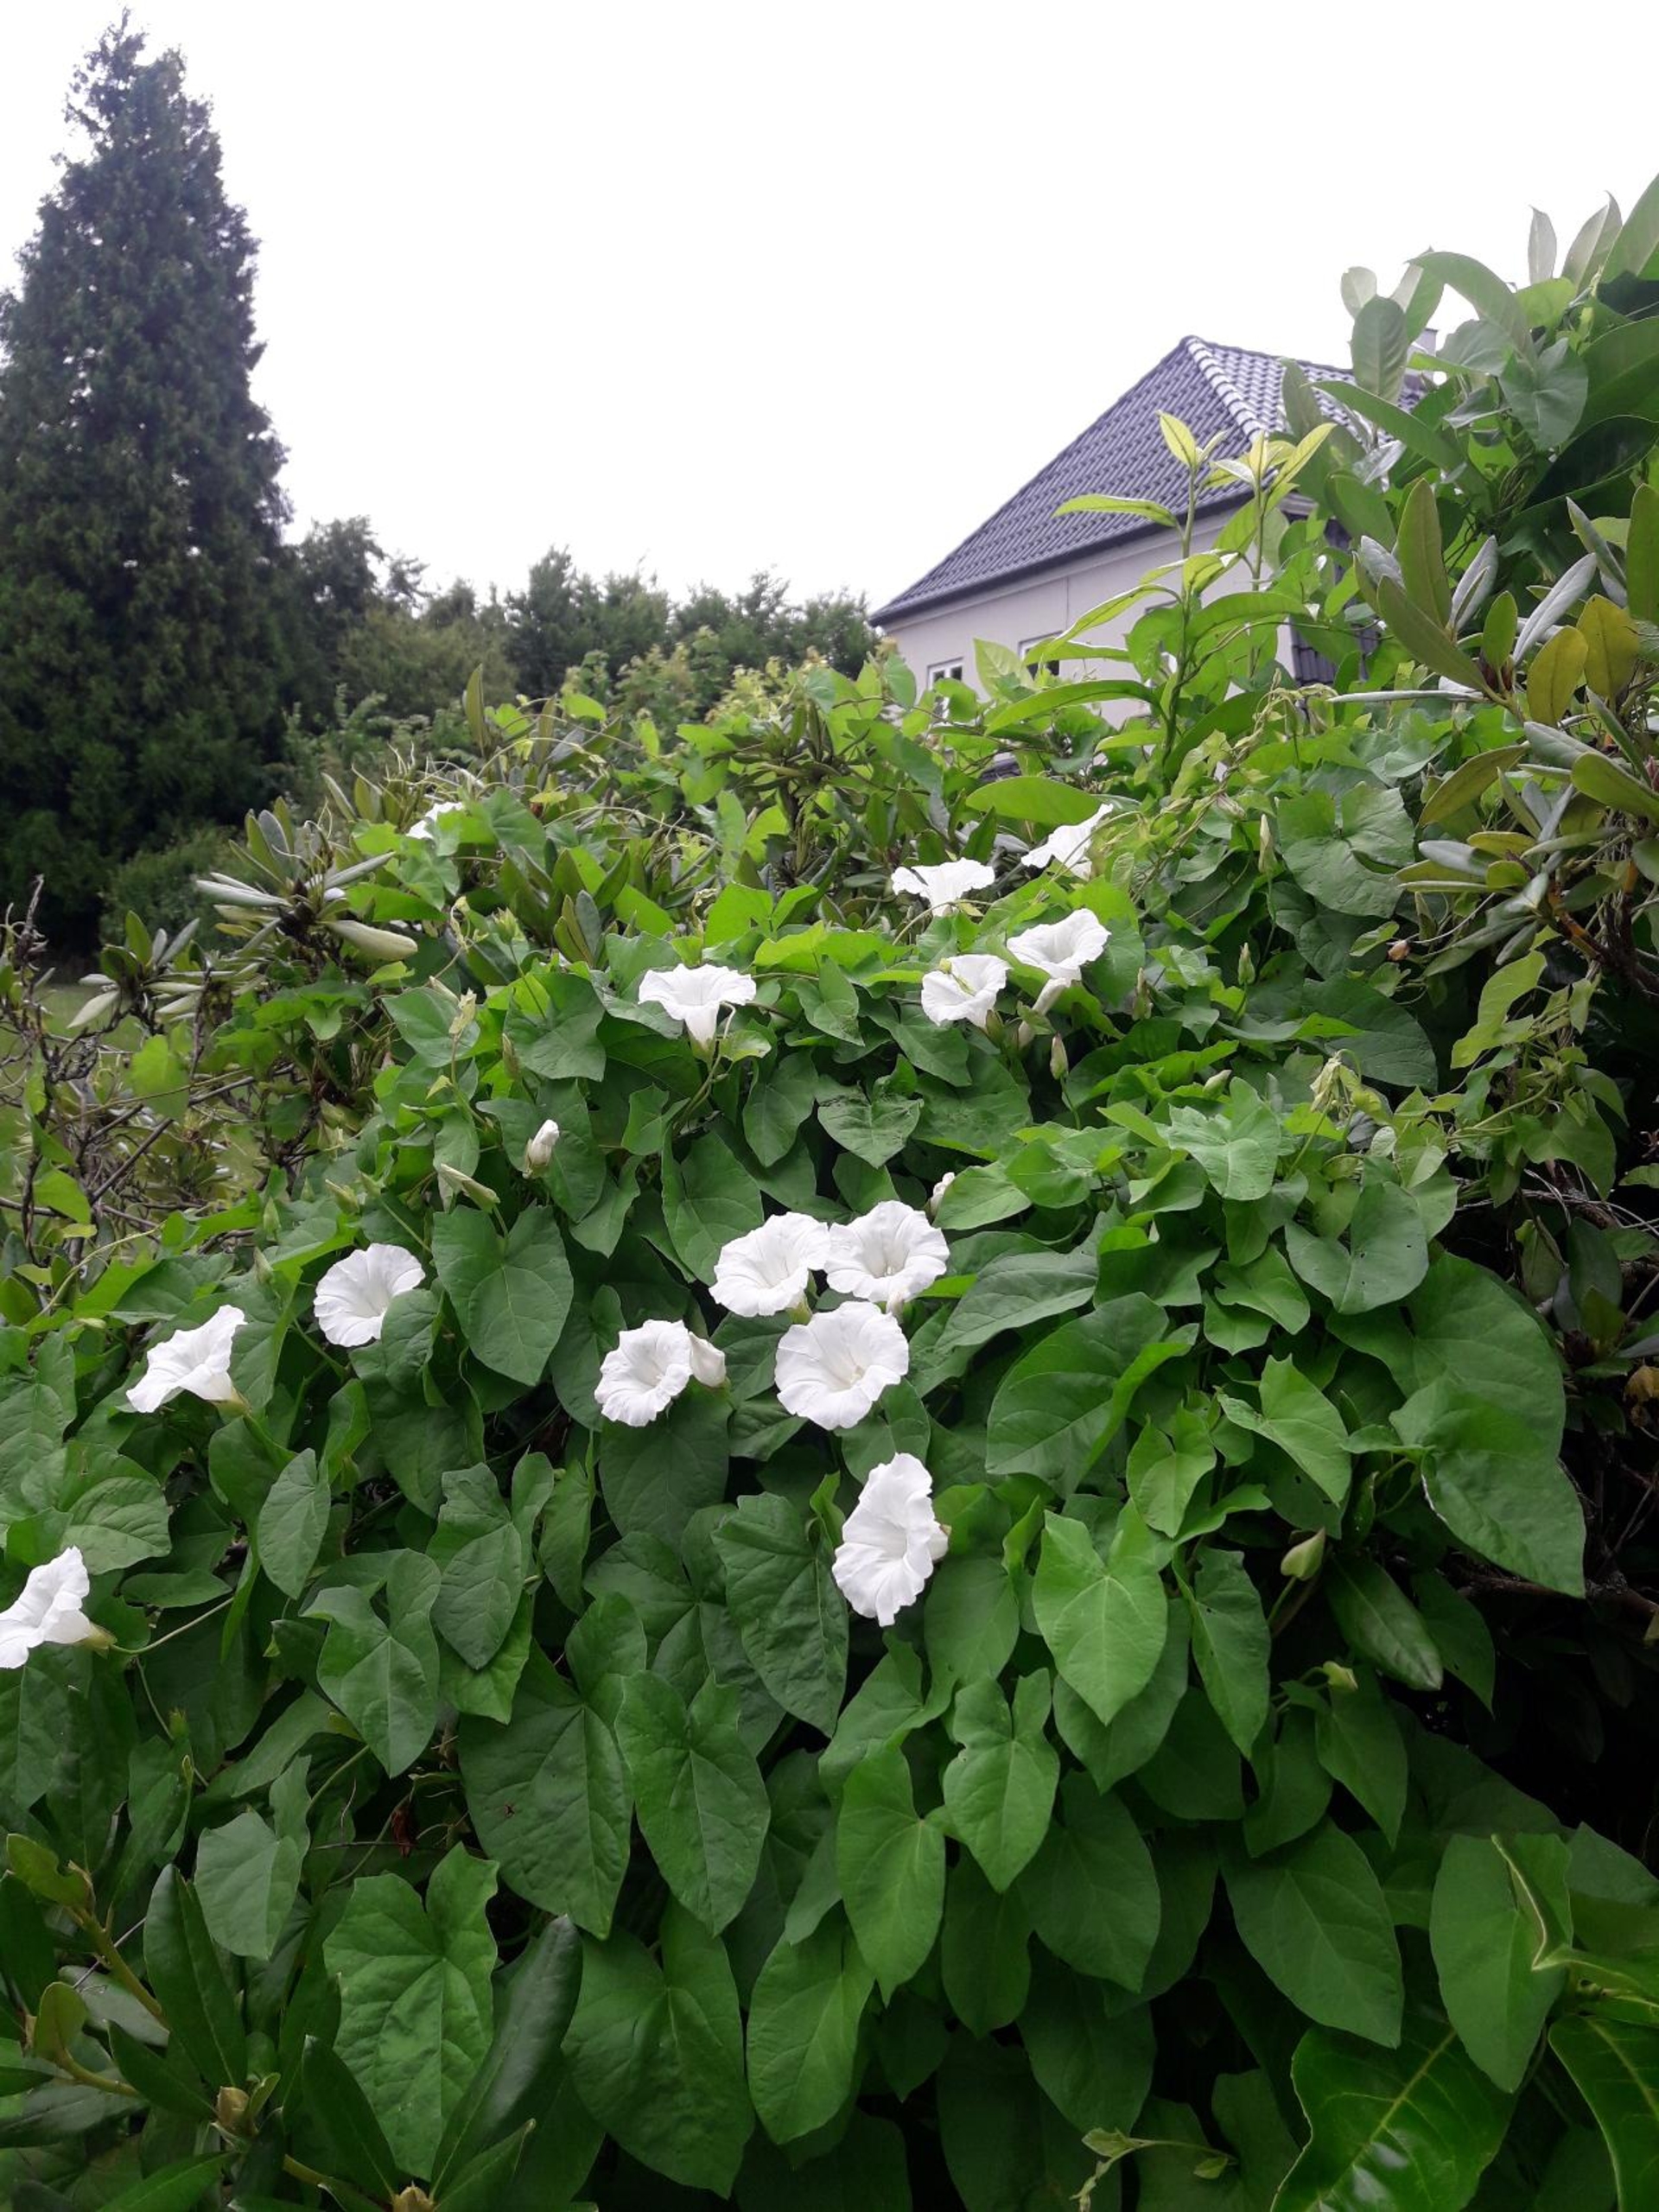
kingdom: Plantae
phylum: Tracheophyta
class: Magnoliopsida
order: Solanales
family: Convolvulaceae
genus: Calystegia
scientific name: Calystegia sepium
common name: Gærde-snerle
